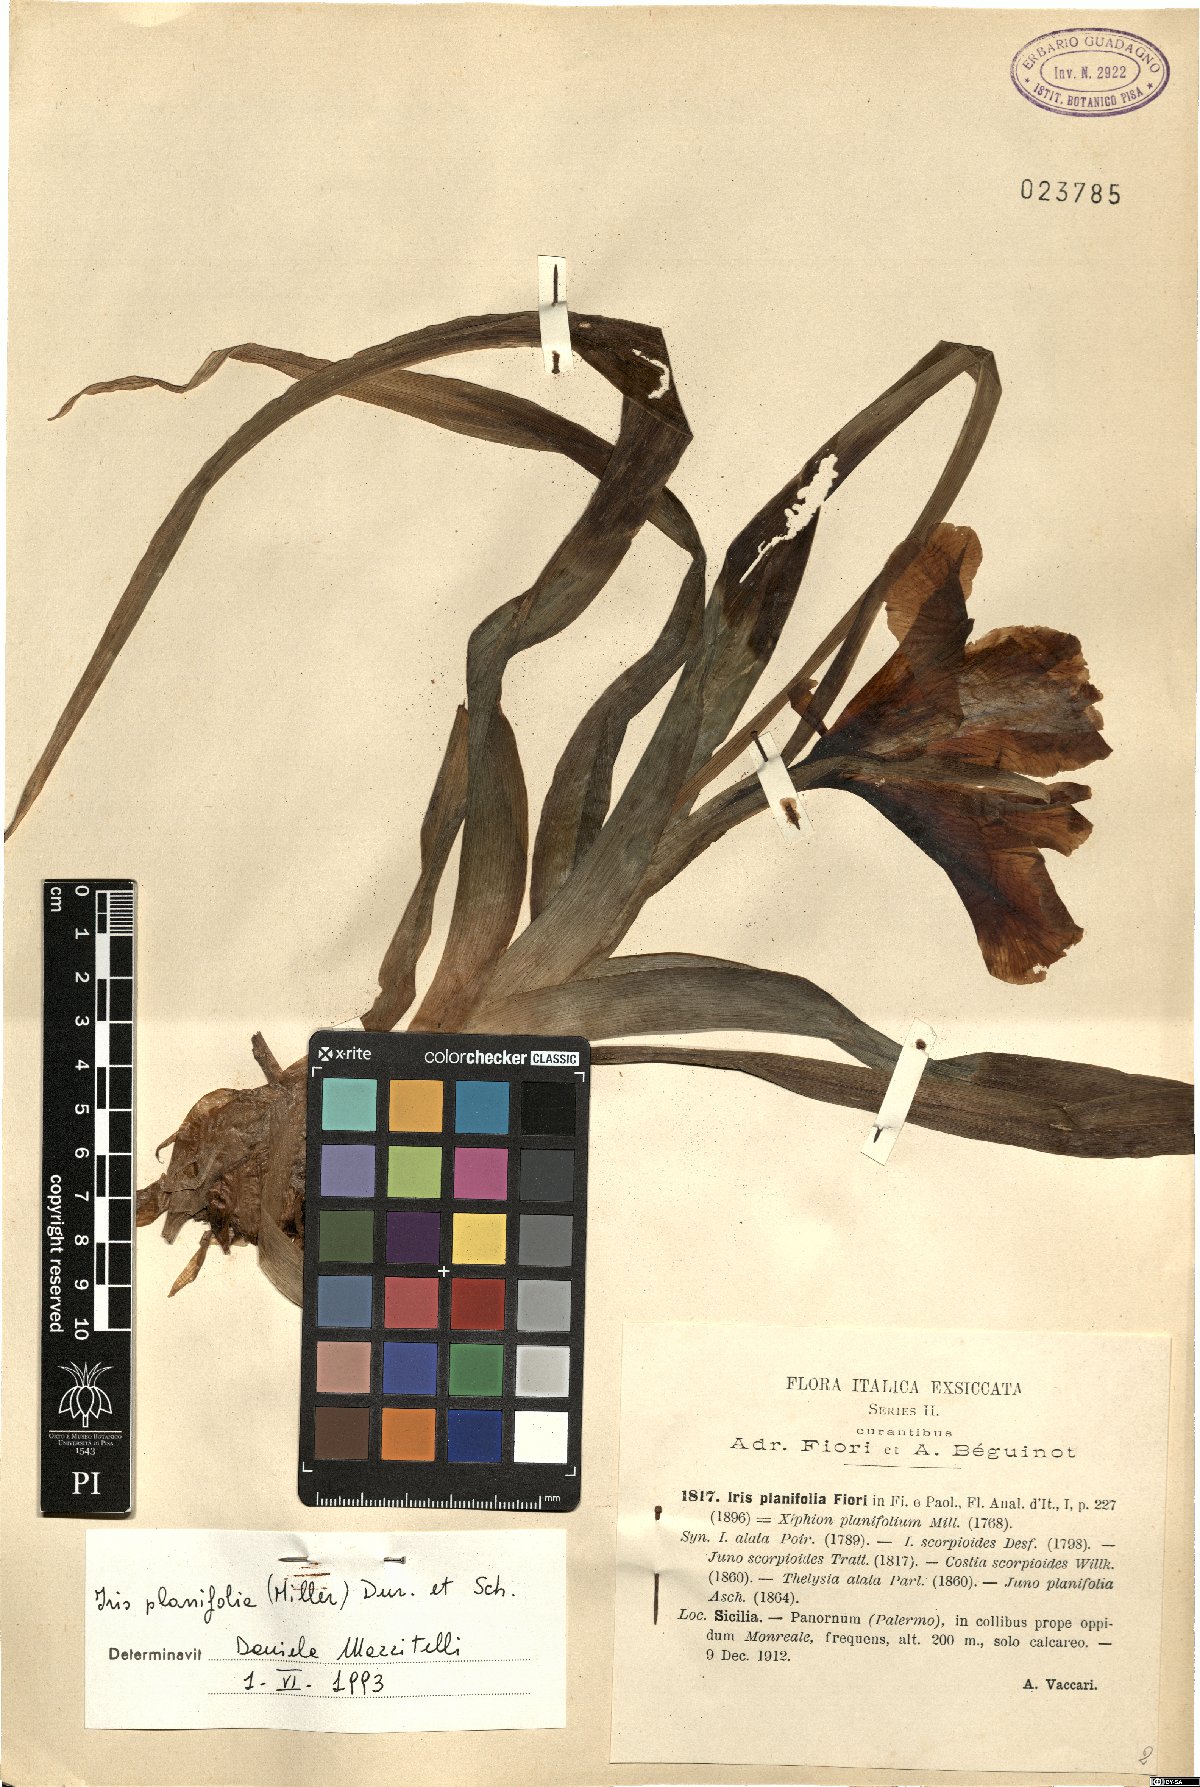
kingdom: Plantae
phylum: Tracheophyta
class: Liliopsida
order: Asparagales
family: Iridaceae
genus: Iris
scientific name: Iris planifolia
